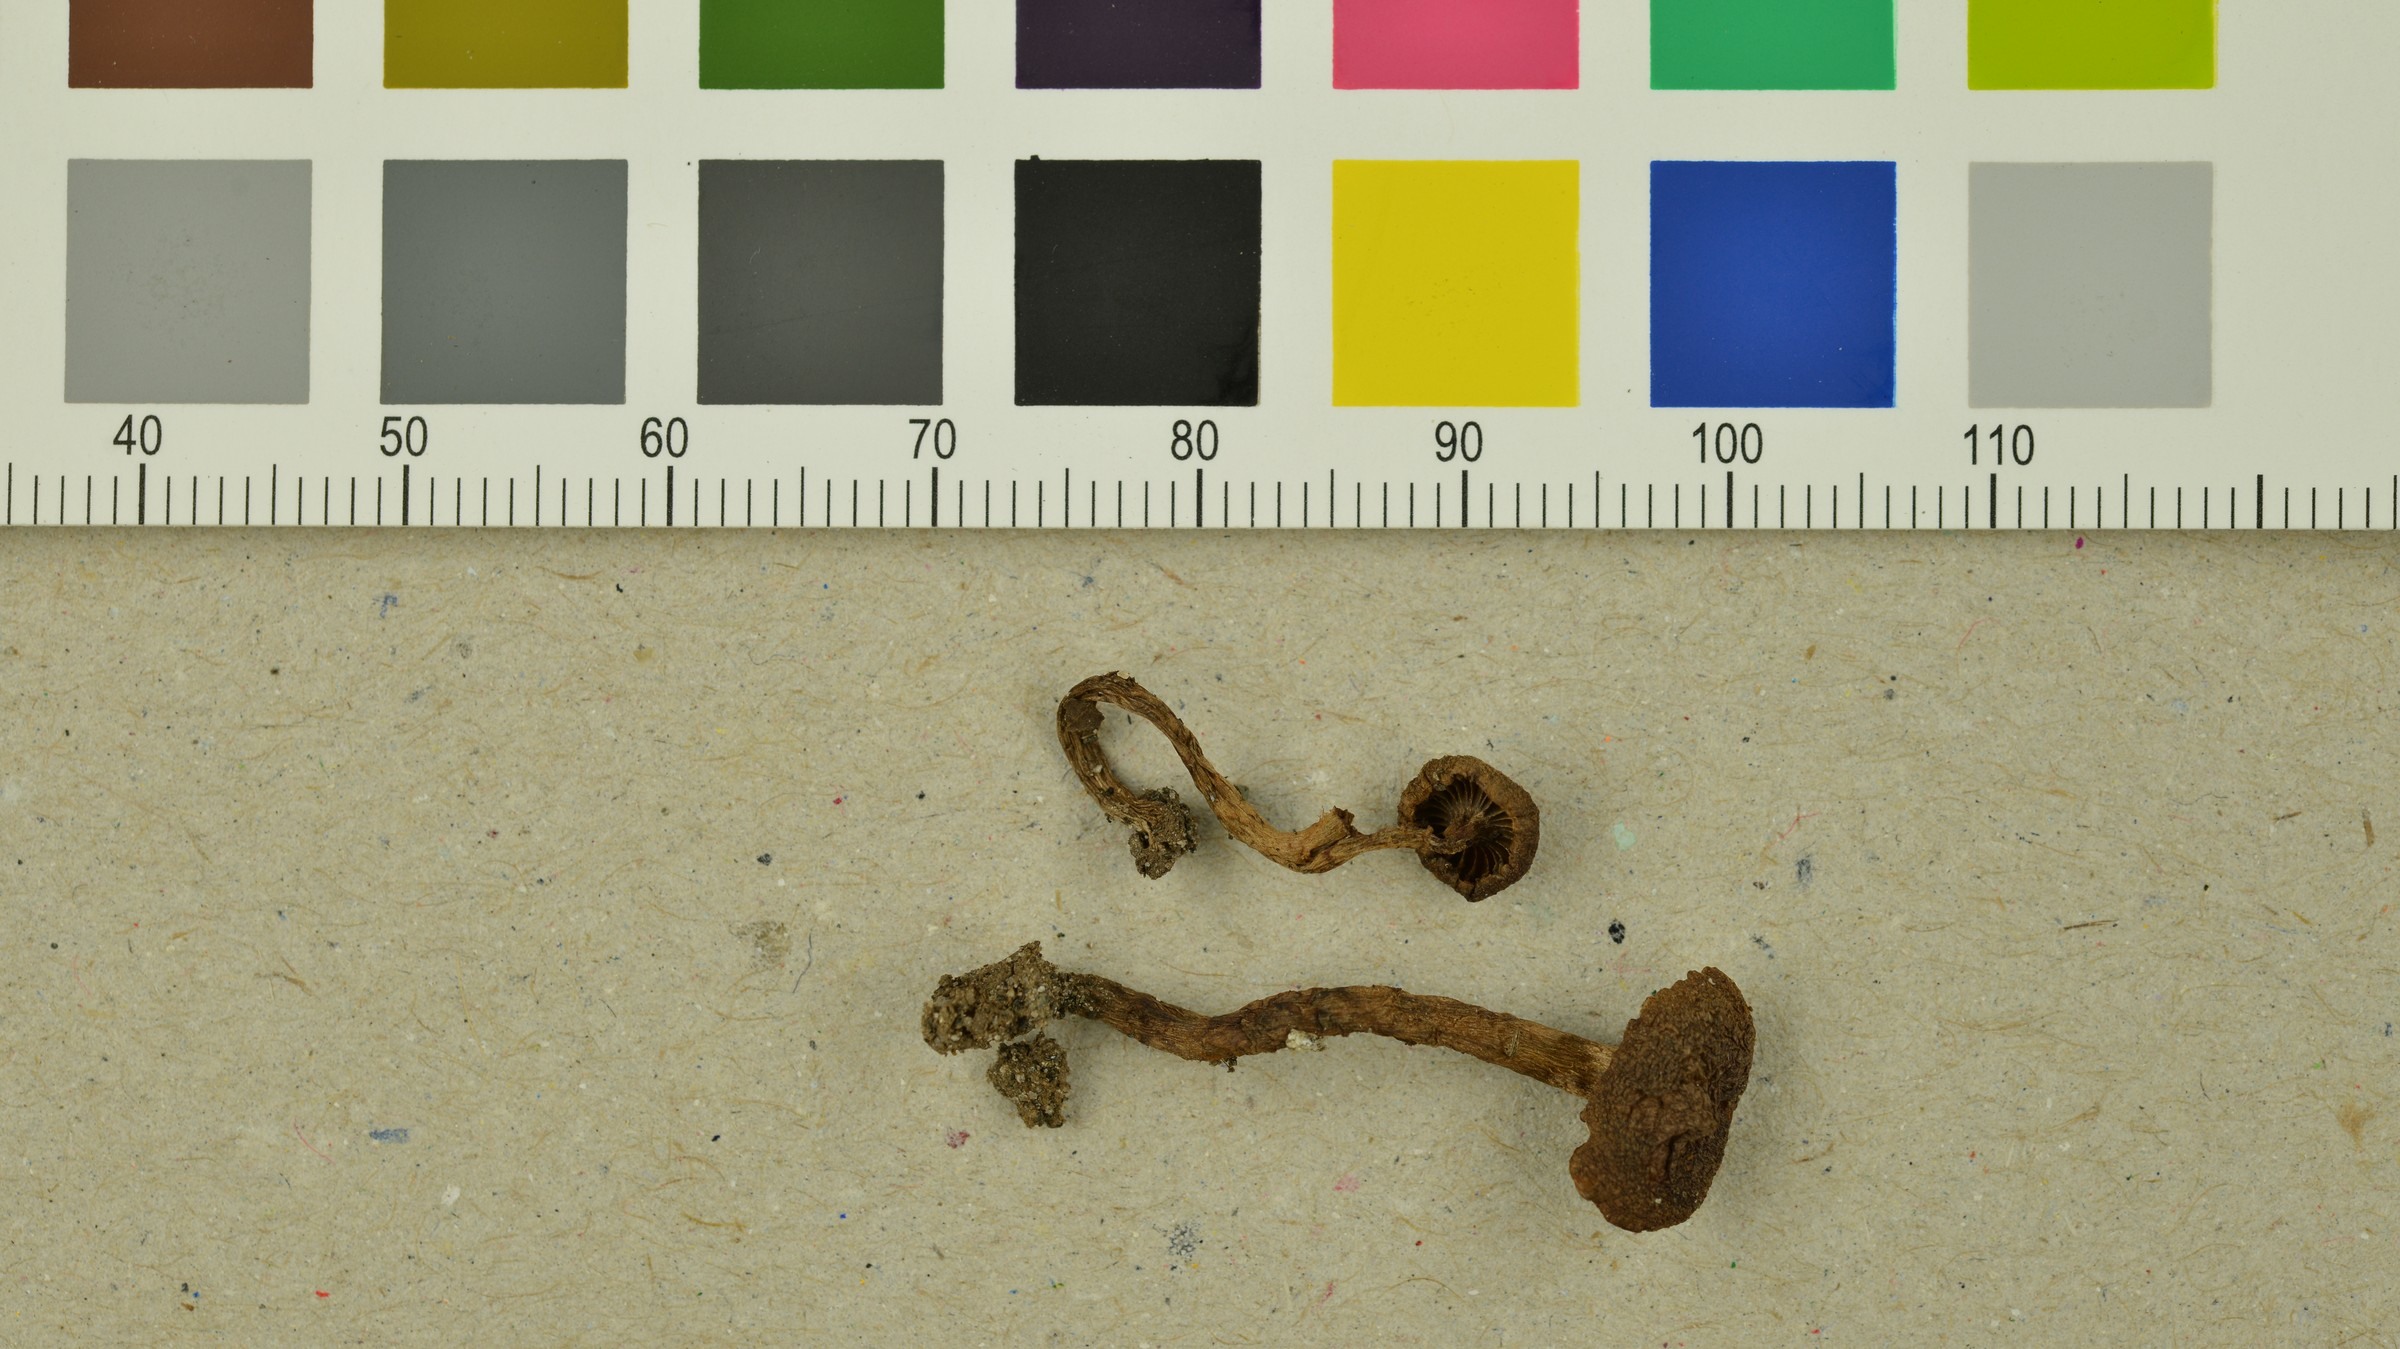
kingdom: Fungi
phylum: Basidiomycota
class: Agaricomycetes
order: Agaricales
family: Cortinariaceae
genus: Cortinarius
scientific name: Cortinarius psammocephalus
